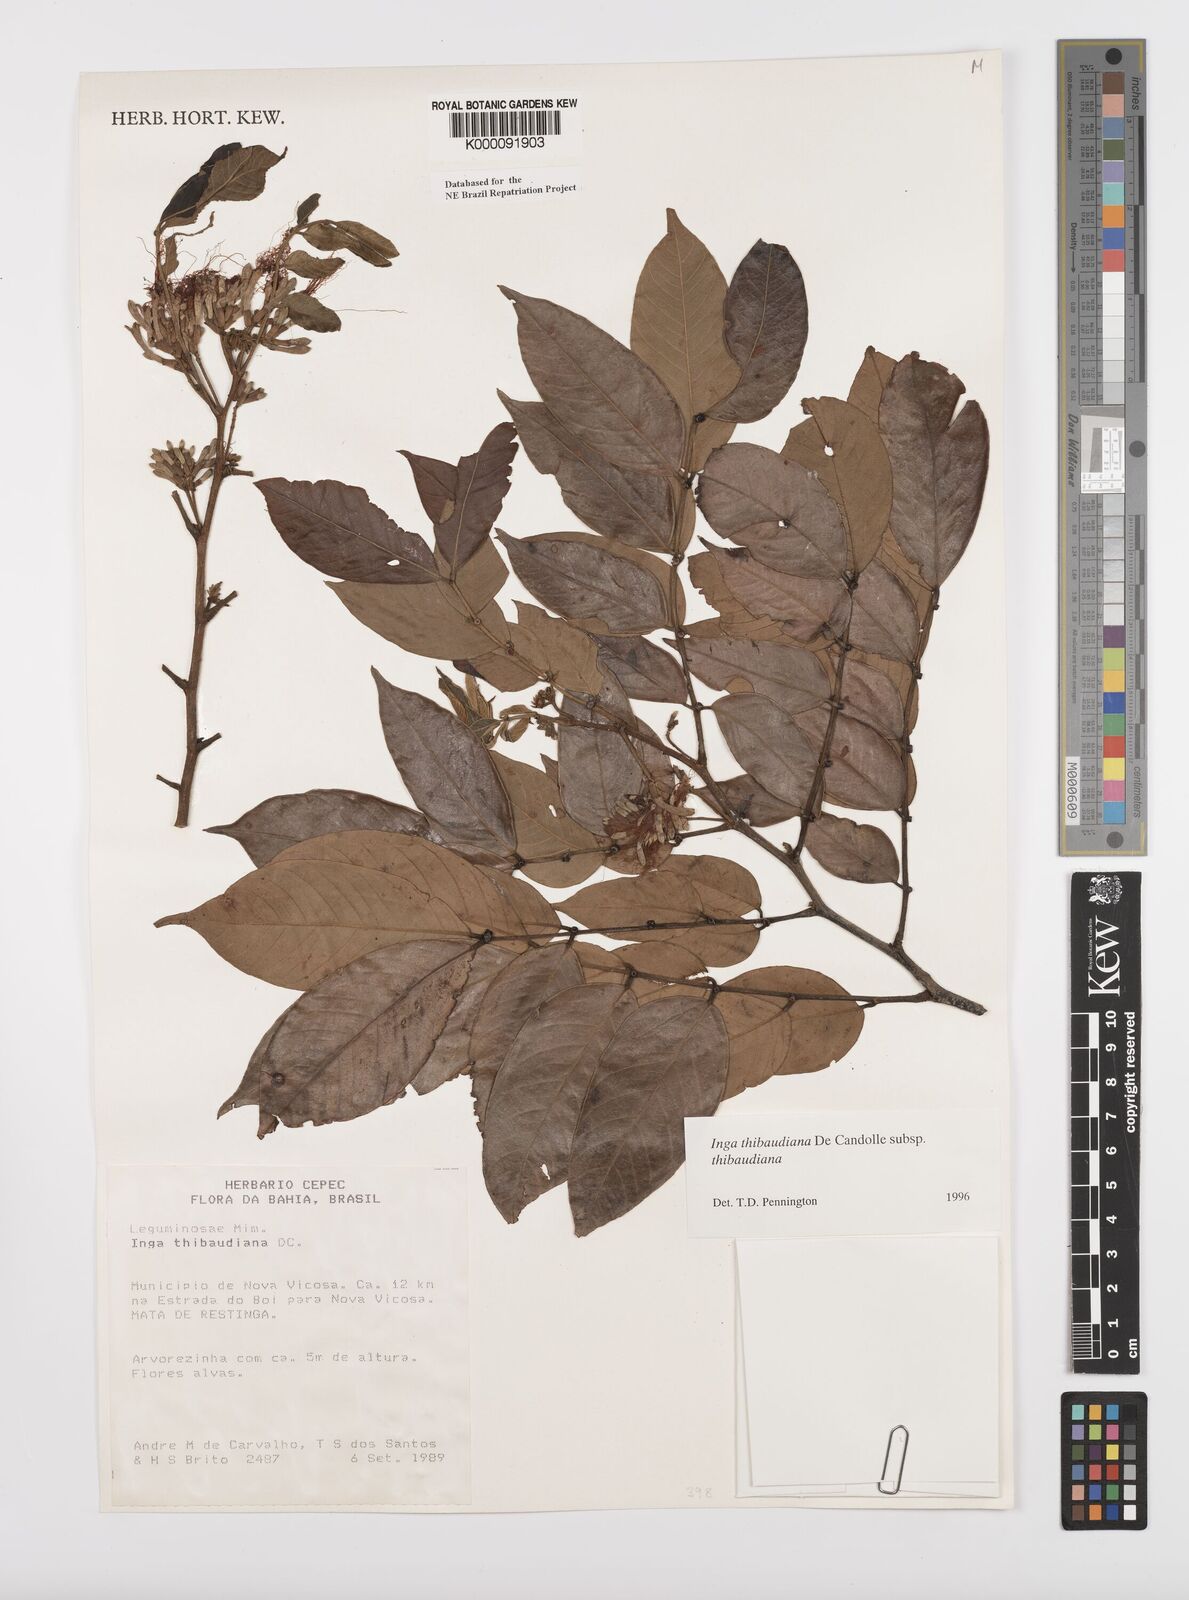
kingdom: Plantae
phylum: Tracheophyta
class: Magnoliopsida
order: Fabales
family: Fabaceae
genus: Inga
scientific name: Inga thibaudiana
